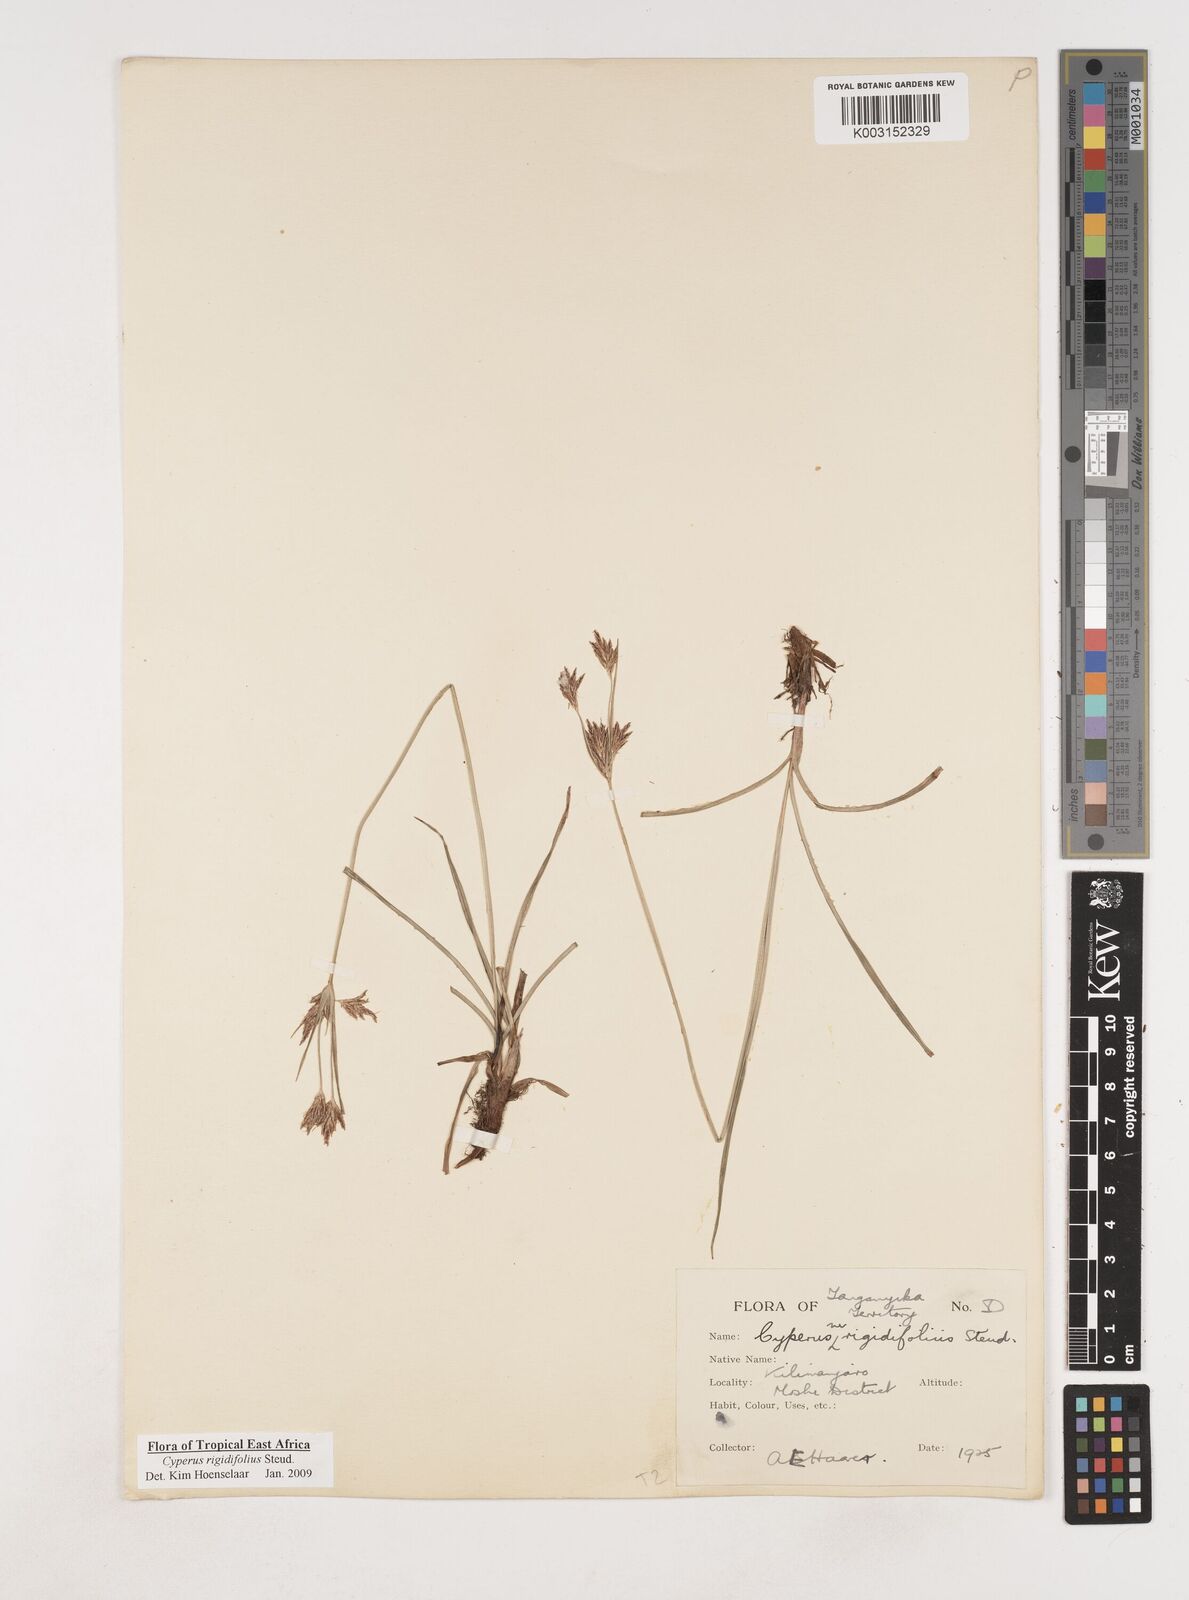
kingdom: Plantae
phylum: Tracheophyta
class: Liliopsida
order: Poales
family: Cyperaceae
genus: Cyperus
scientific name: Cyperus rigidifolius
